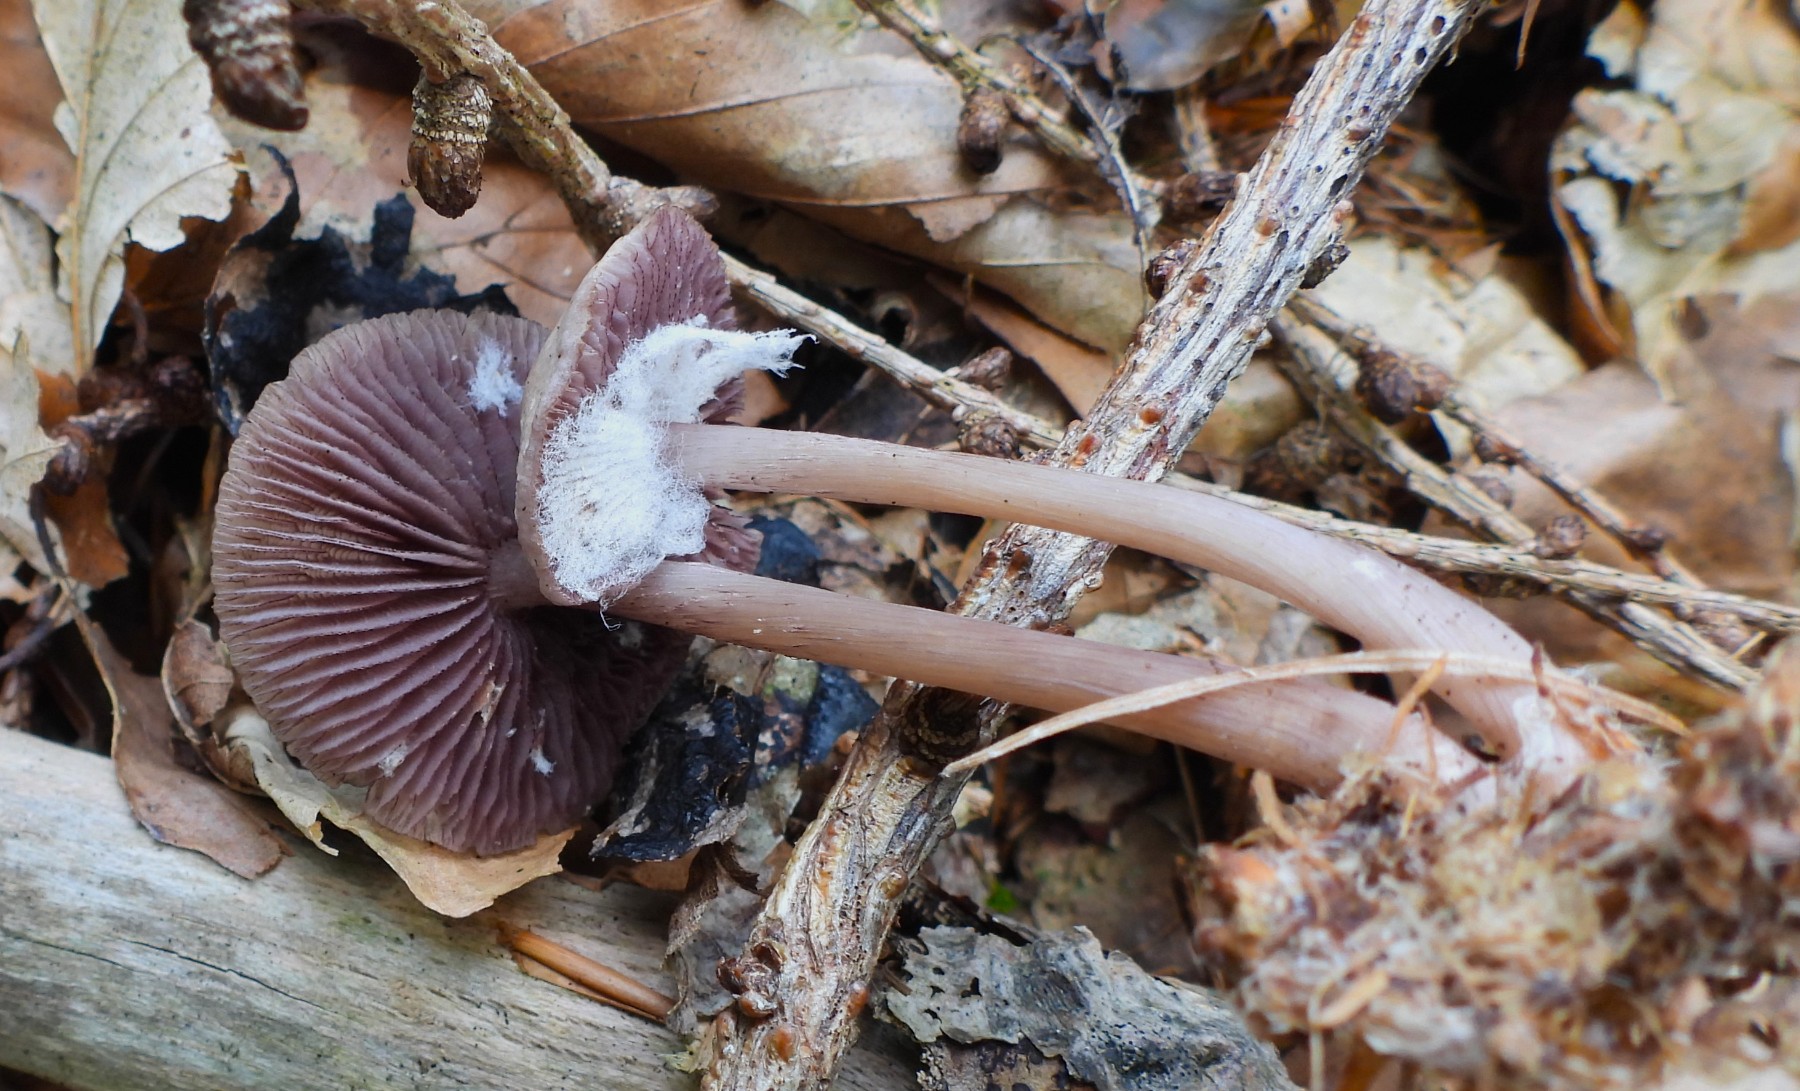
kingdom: Fungi
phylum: Basidiomycota
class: Agaricomycetes
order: Agaricales
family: Mycenaceae
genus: Mycena
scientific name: Mycena pelianthina
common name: mørkbladet huesvamp
